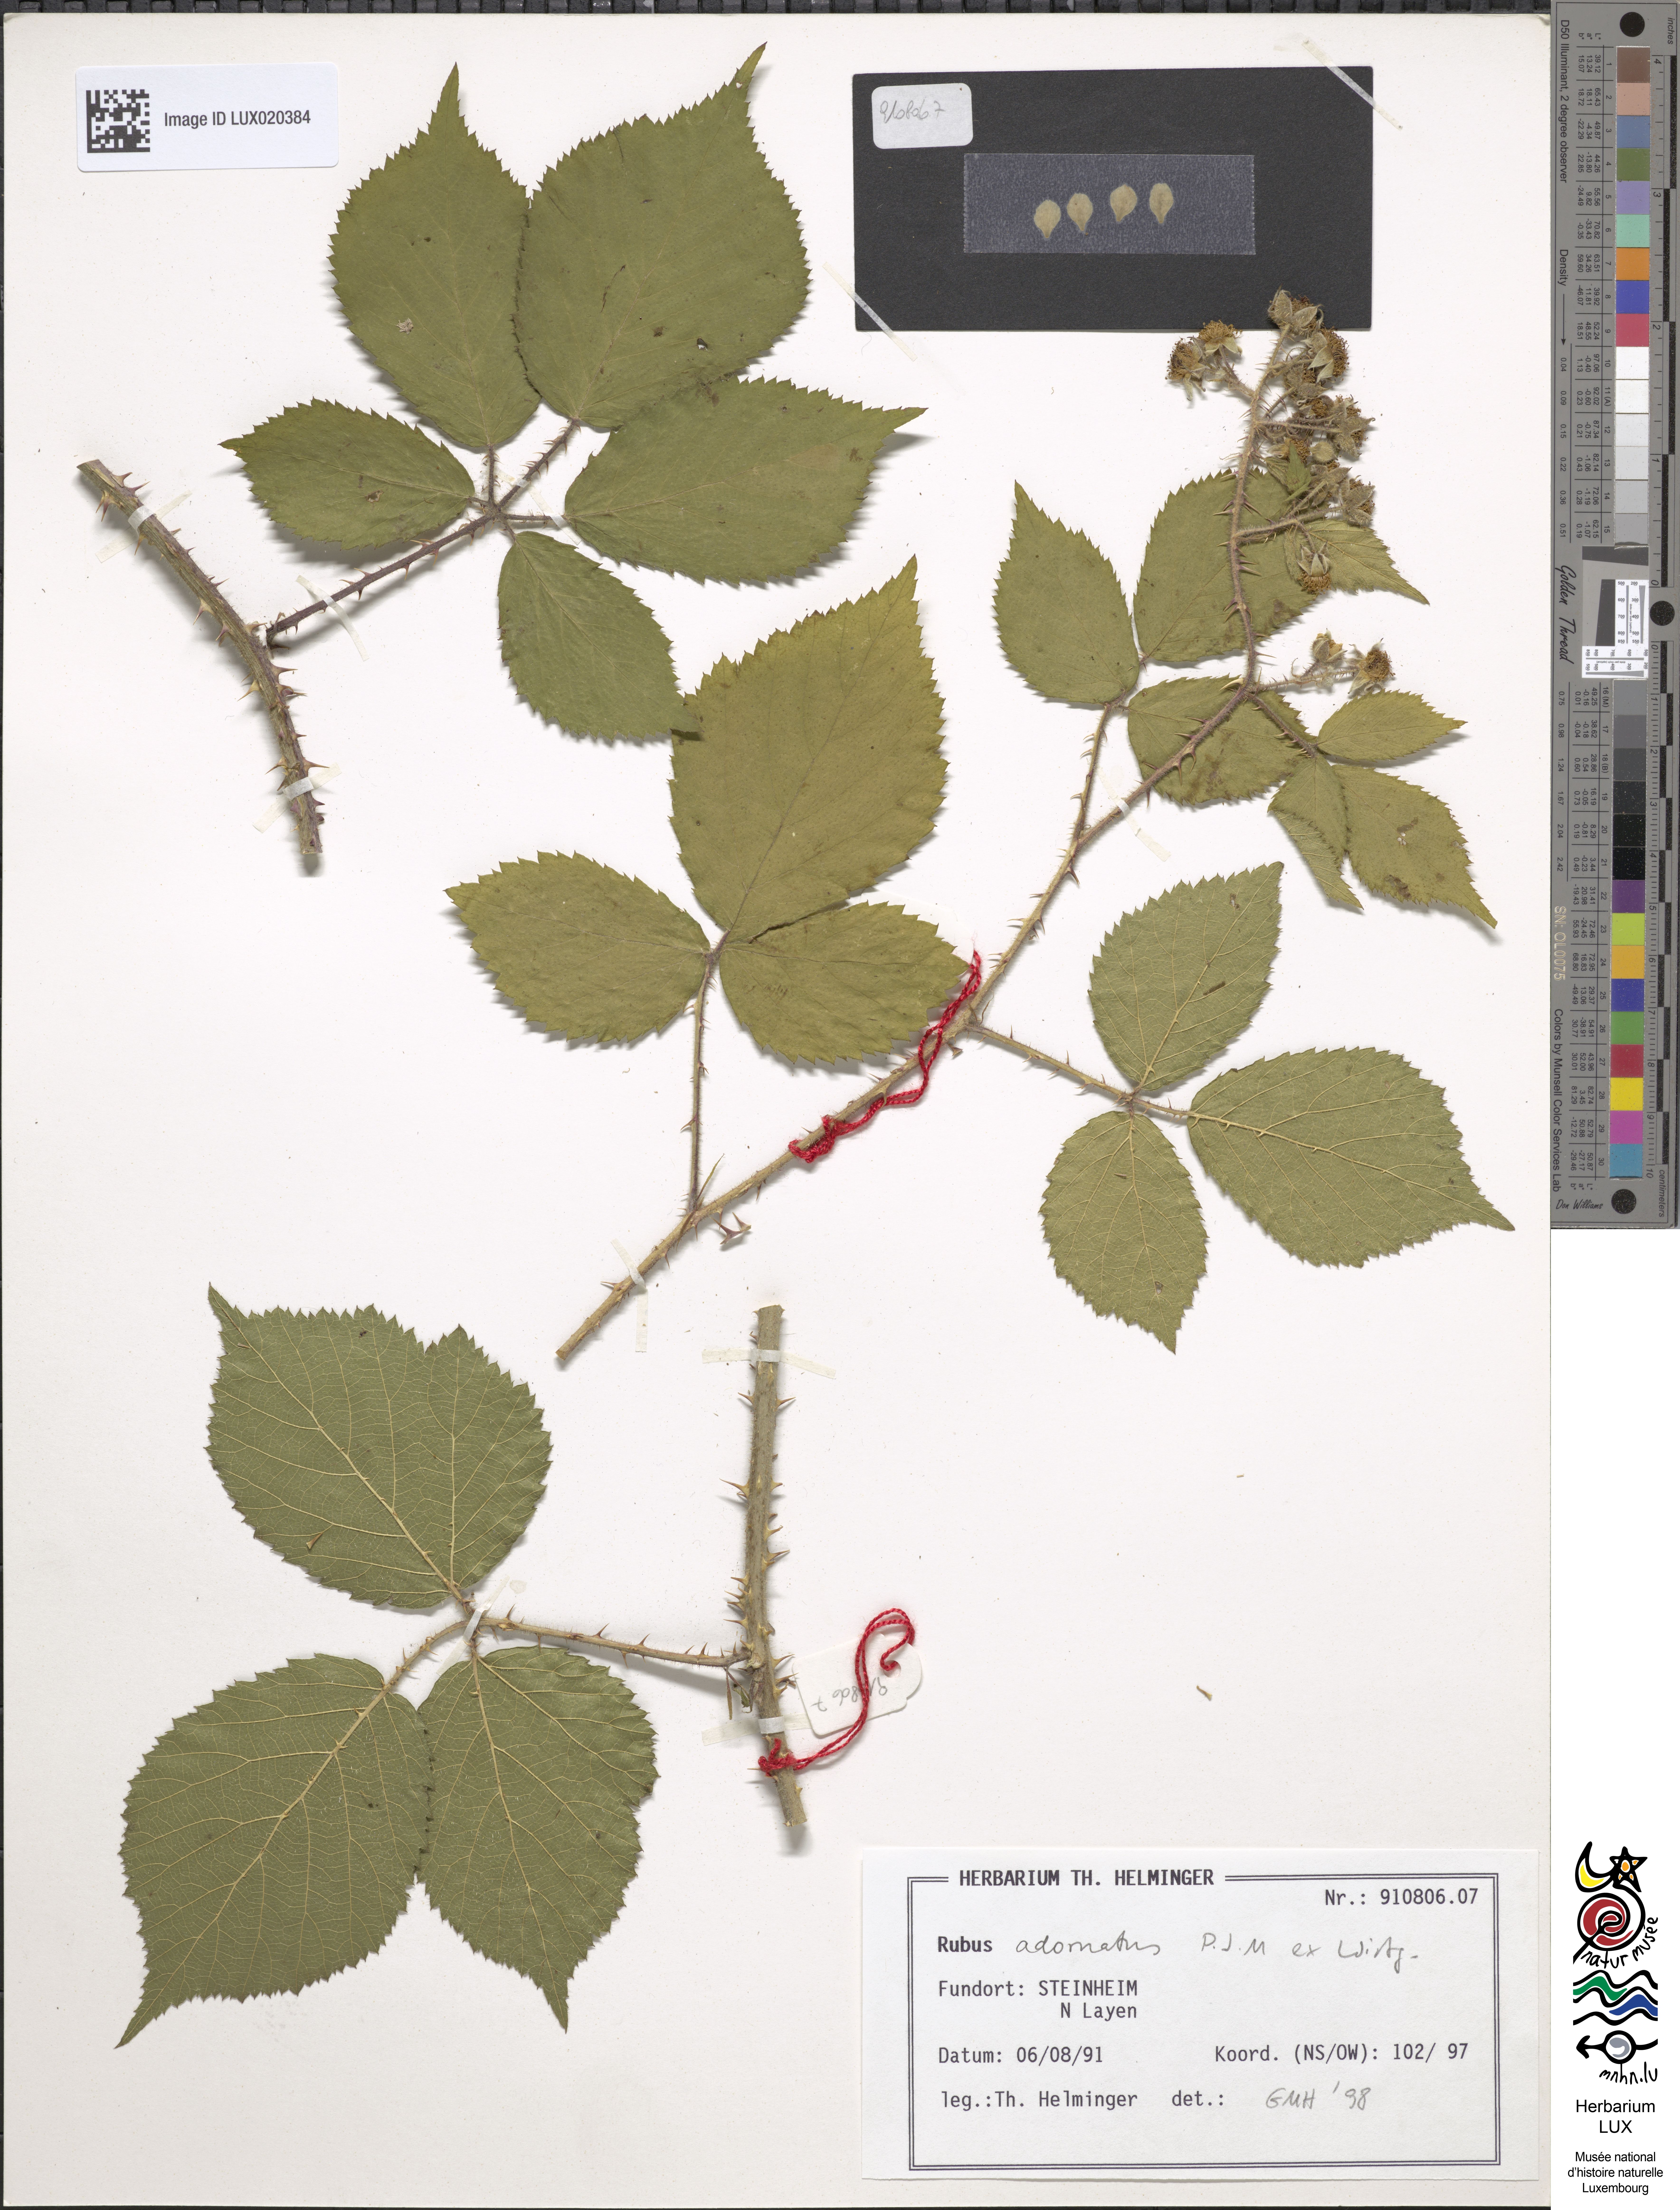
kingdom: Plantae
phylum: Tracheophyta
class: Magnoliopsida
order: Rosales
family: Rosaceae
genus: Rubus
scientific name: Rubus
